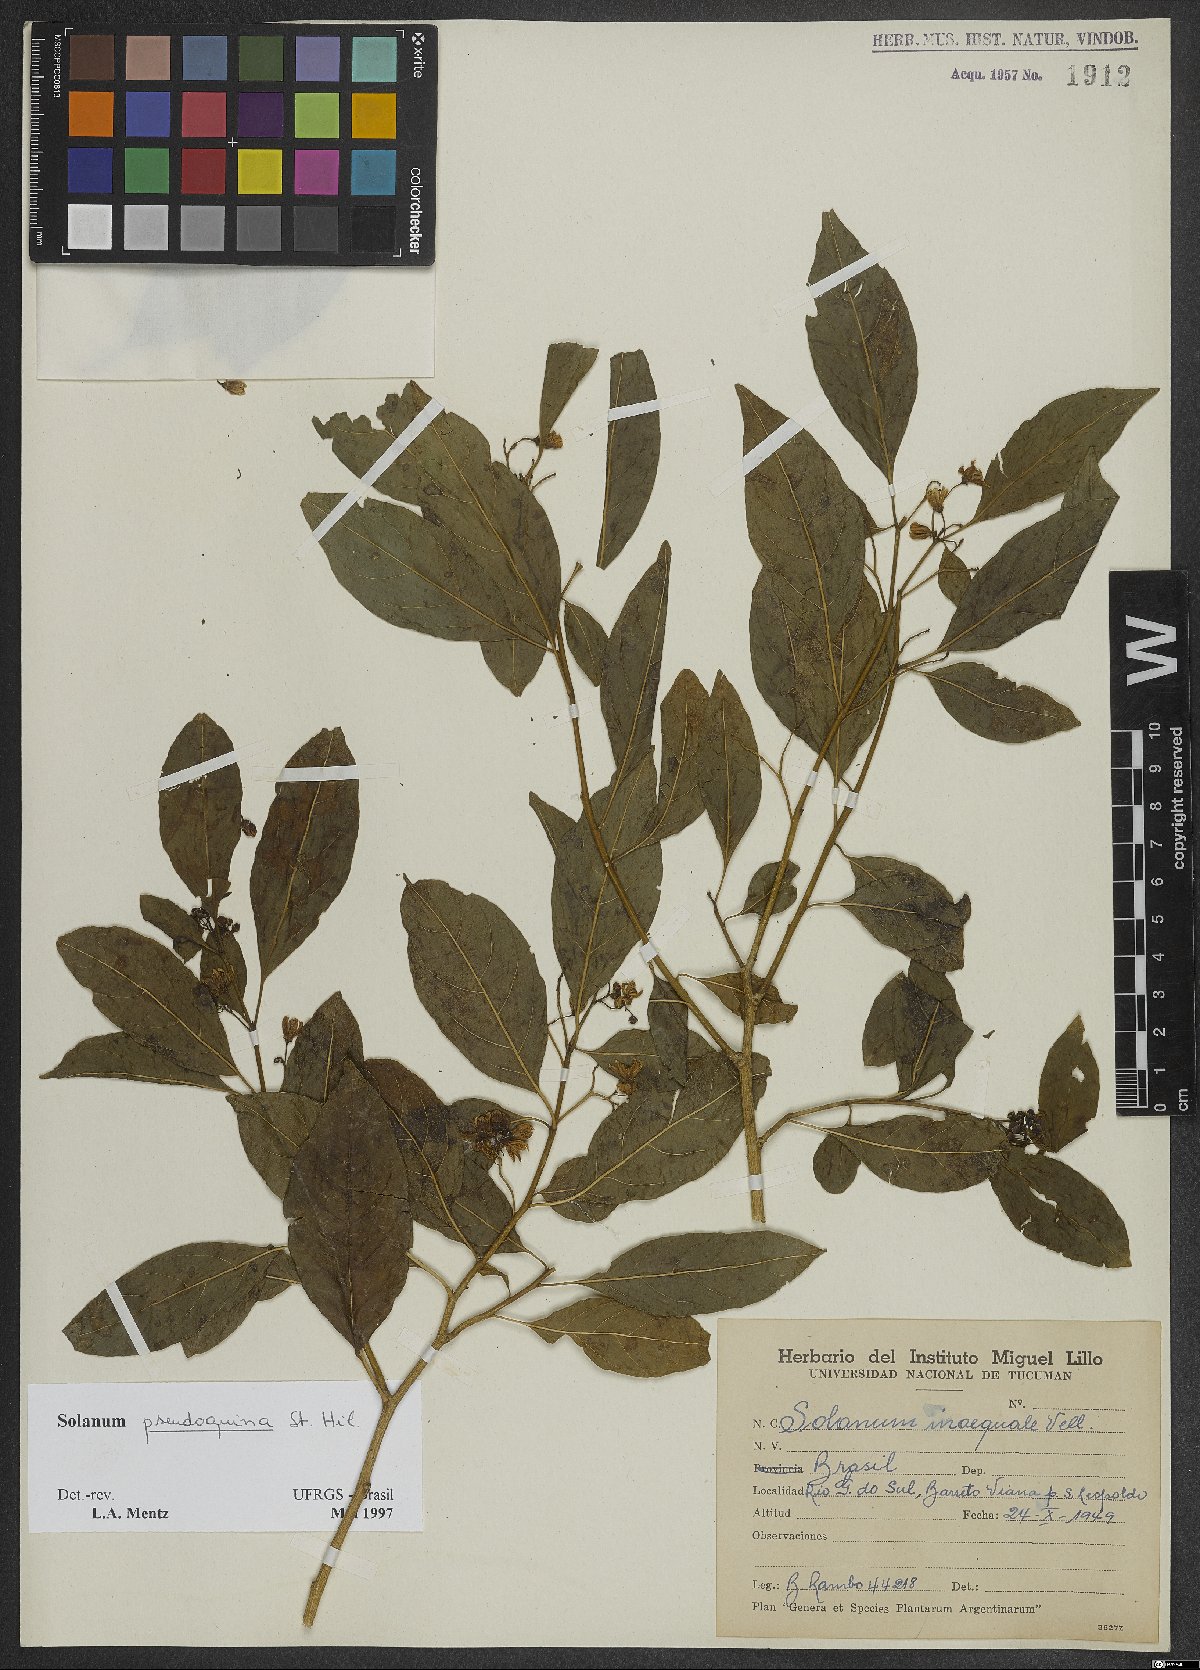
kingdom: Plantae
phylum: Tracheophyta
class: Magnoliopsida
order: Solanales
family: Solanaceae
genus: Solanum
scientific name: Solanum pseudoquina
